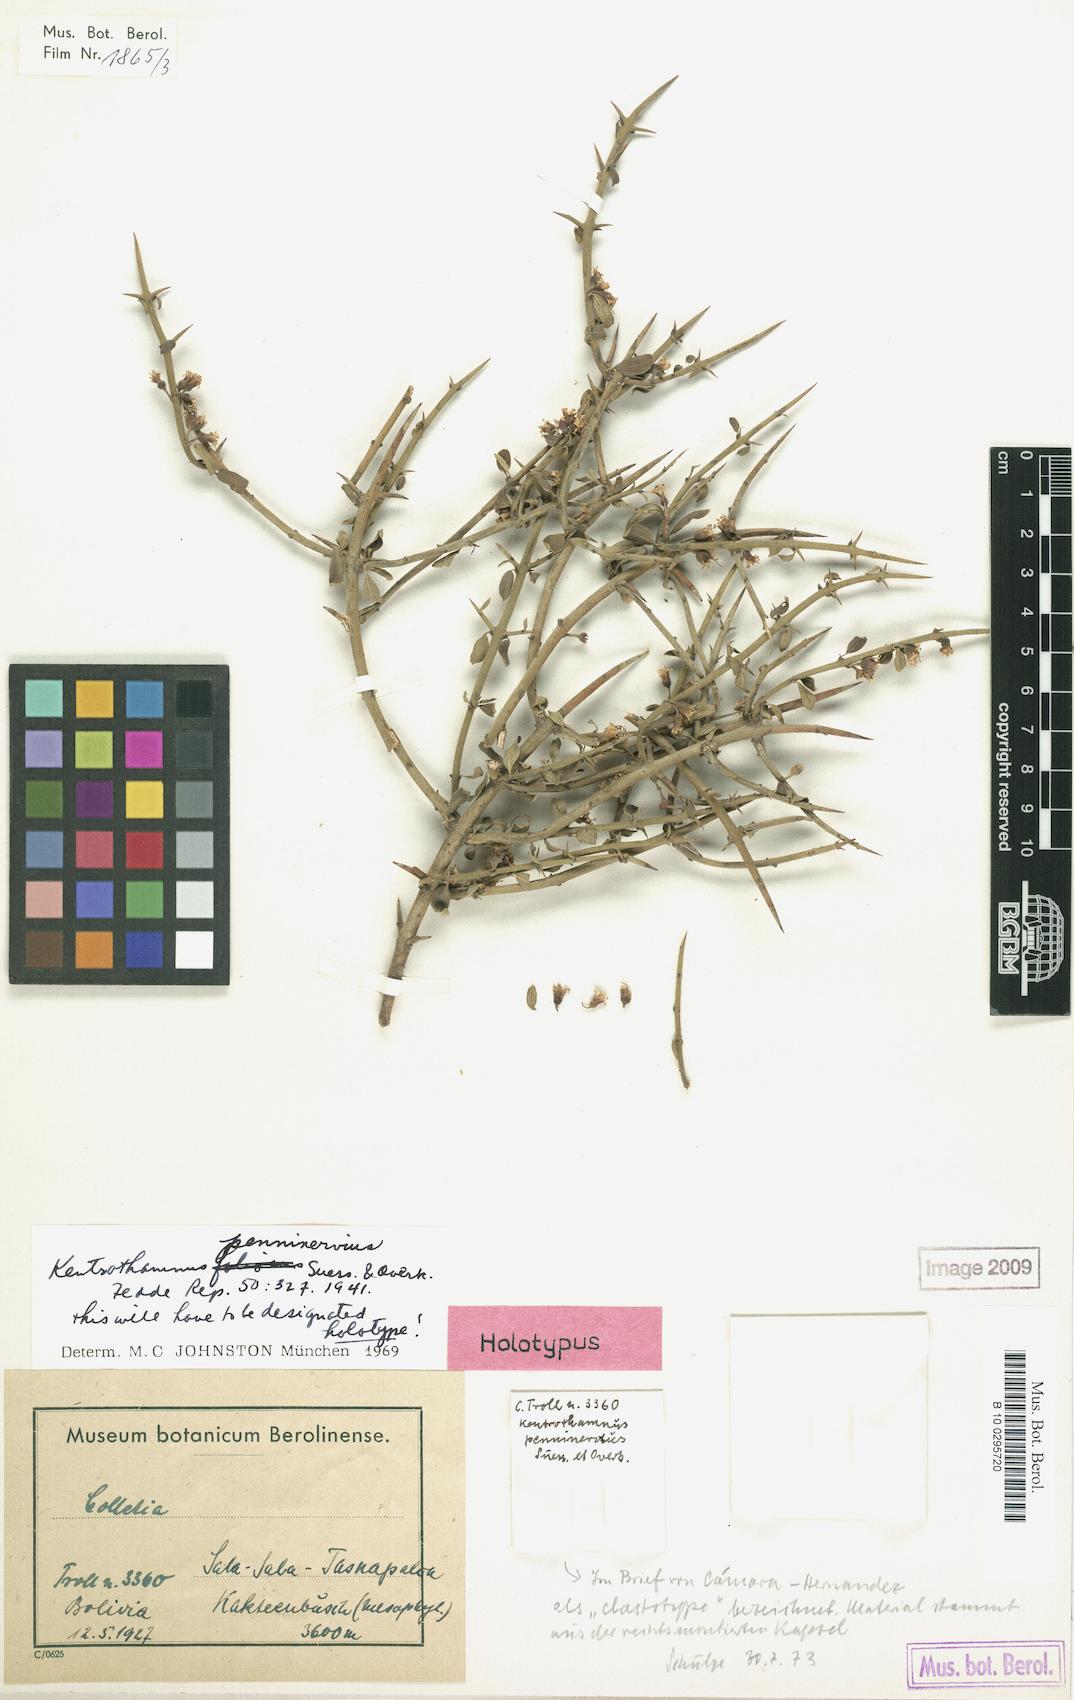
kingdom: Plantae
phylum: Tracheophyta
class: Magnoliopsida
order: Rosales
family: Rhamnaceae
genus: Kentrothamnus
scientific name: Kentrothamnus weddellianus
